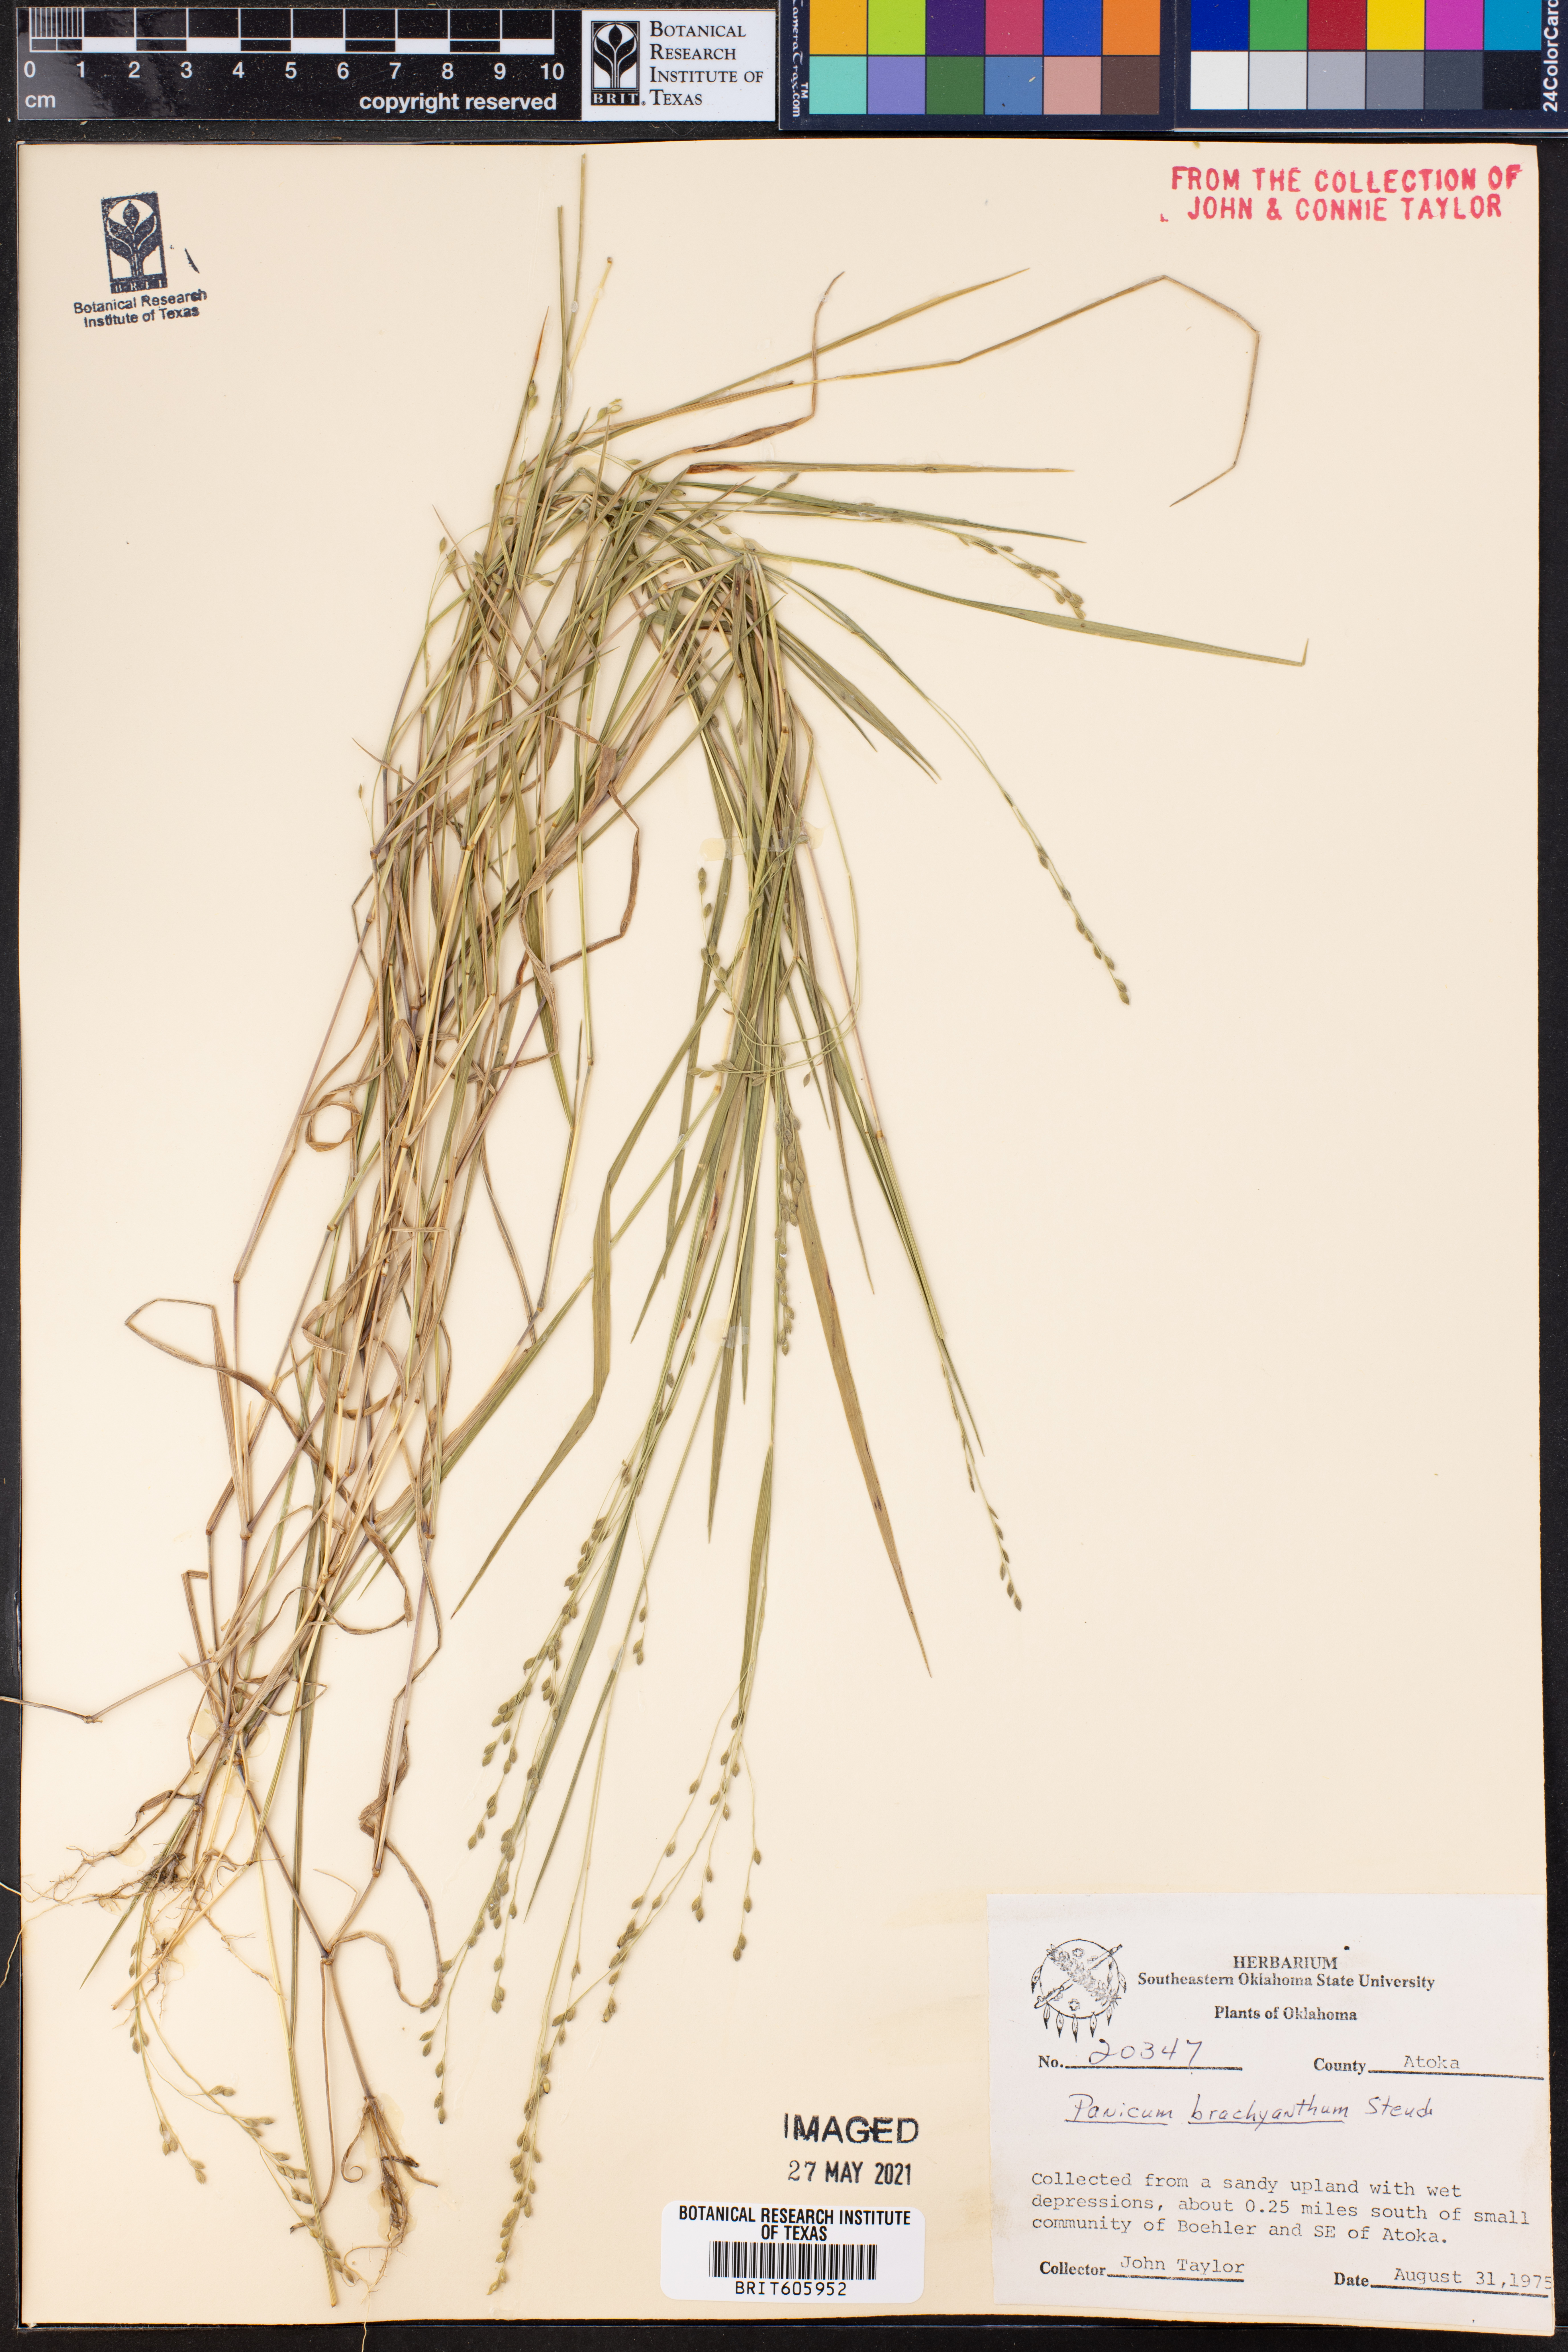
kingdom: Plantae
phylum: Tracheophyta
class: Liliopsida
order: Poales
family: Poaceae
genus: Kellochloa
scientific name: Kellochloa brachyantha
